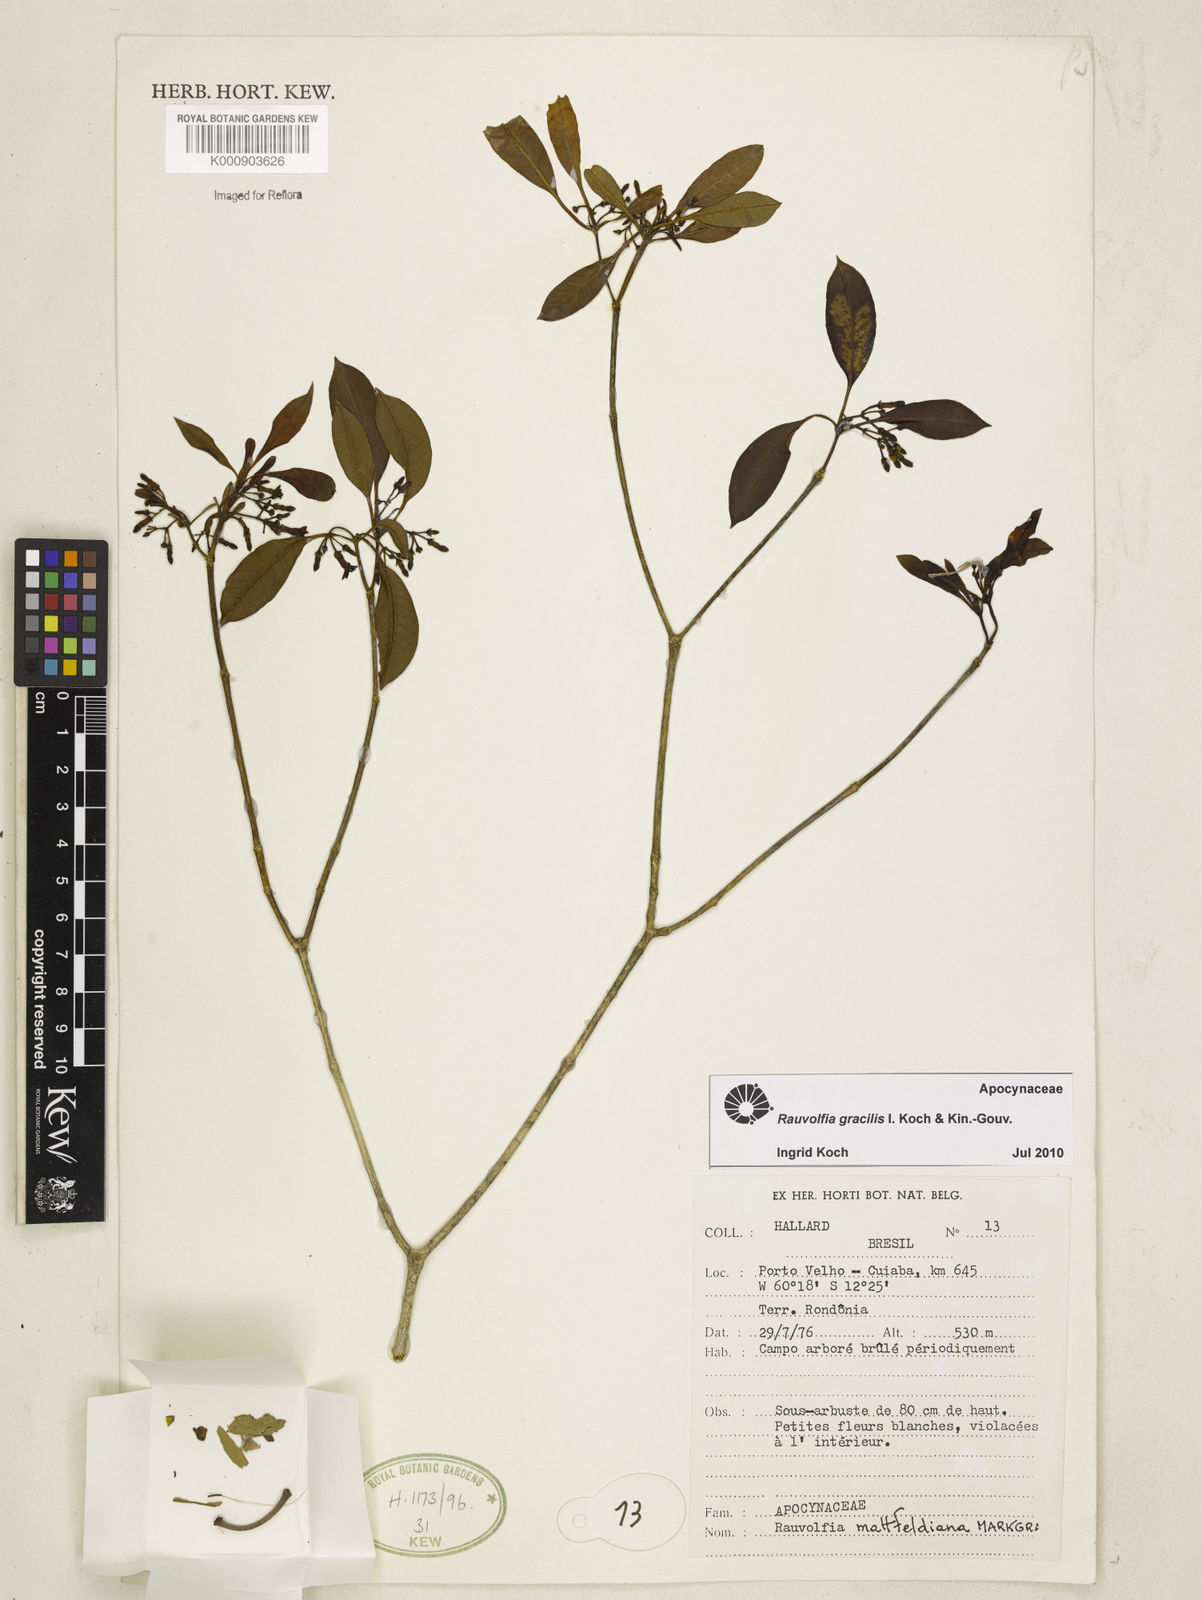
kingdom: Plantae
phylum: Tracheophyta
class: Magnoliopsida
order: Gentianales
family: Apocynaceae
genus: Rauvolfia
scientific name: Rauvolfia gracilis
